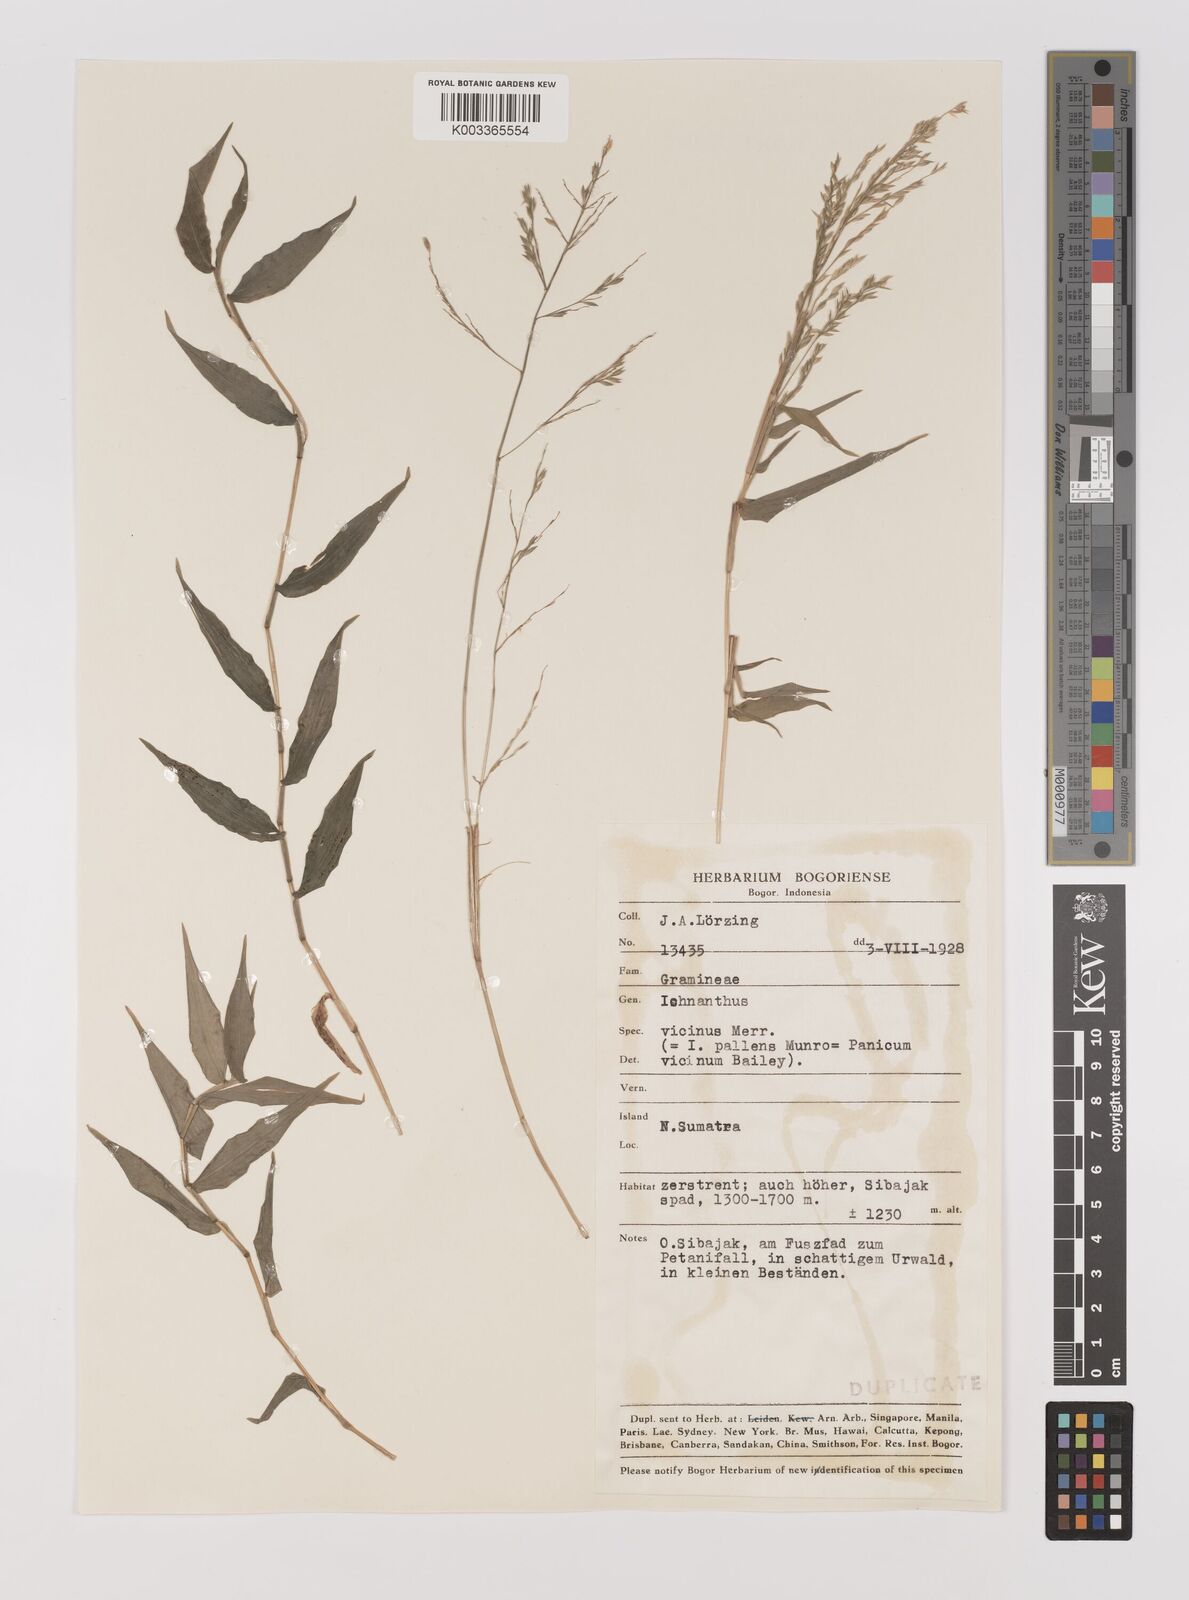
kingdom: Plantae
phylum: Tracheophyta
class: Liliopsida
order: Poales
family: Poaceae
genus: Ichnanthus
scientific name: Ichnanthus pallens
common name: Water grass
